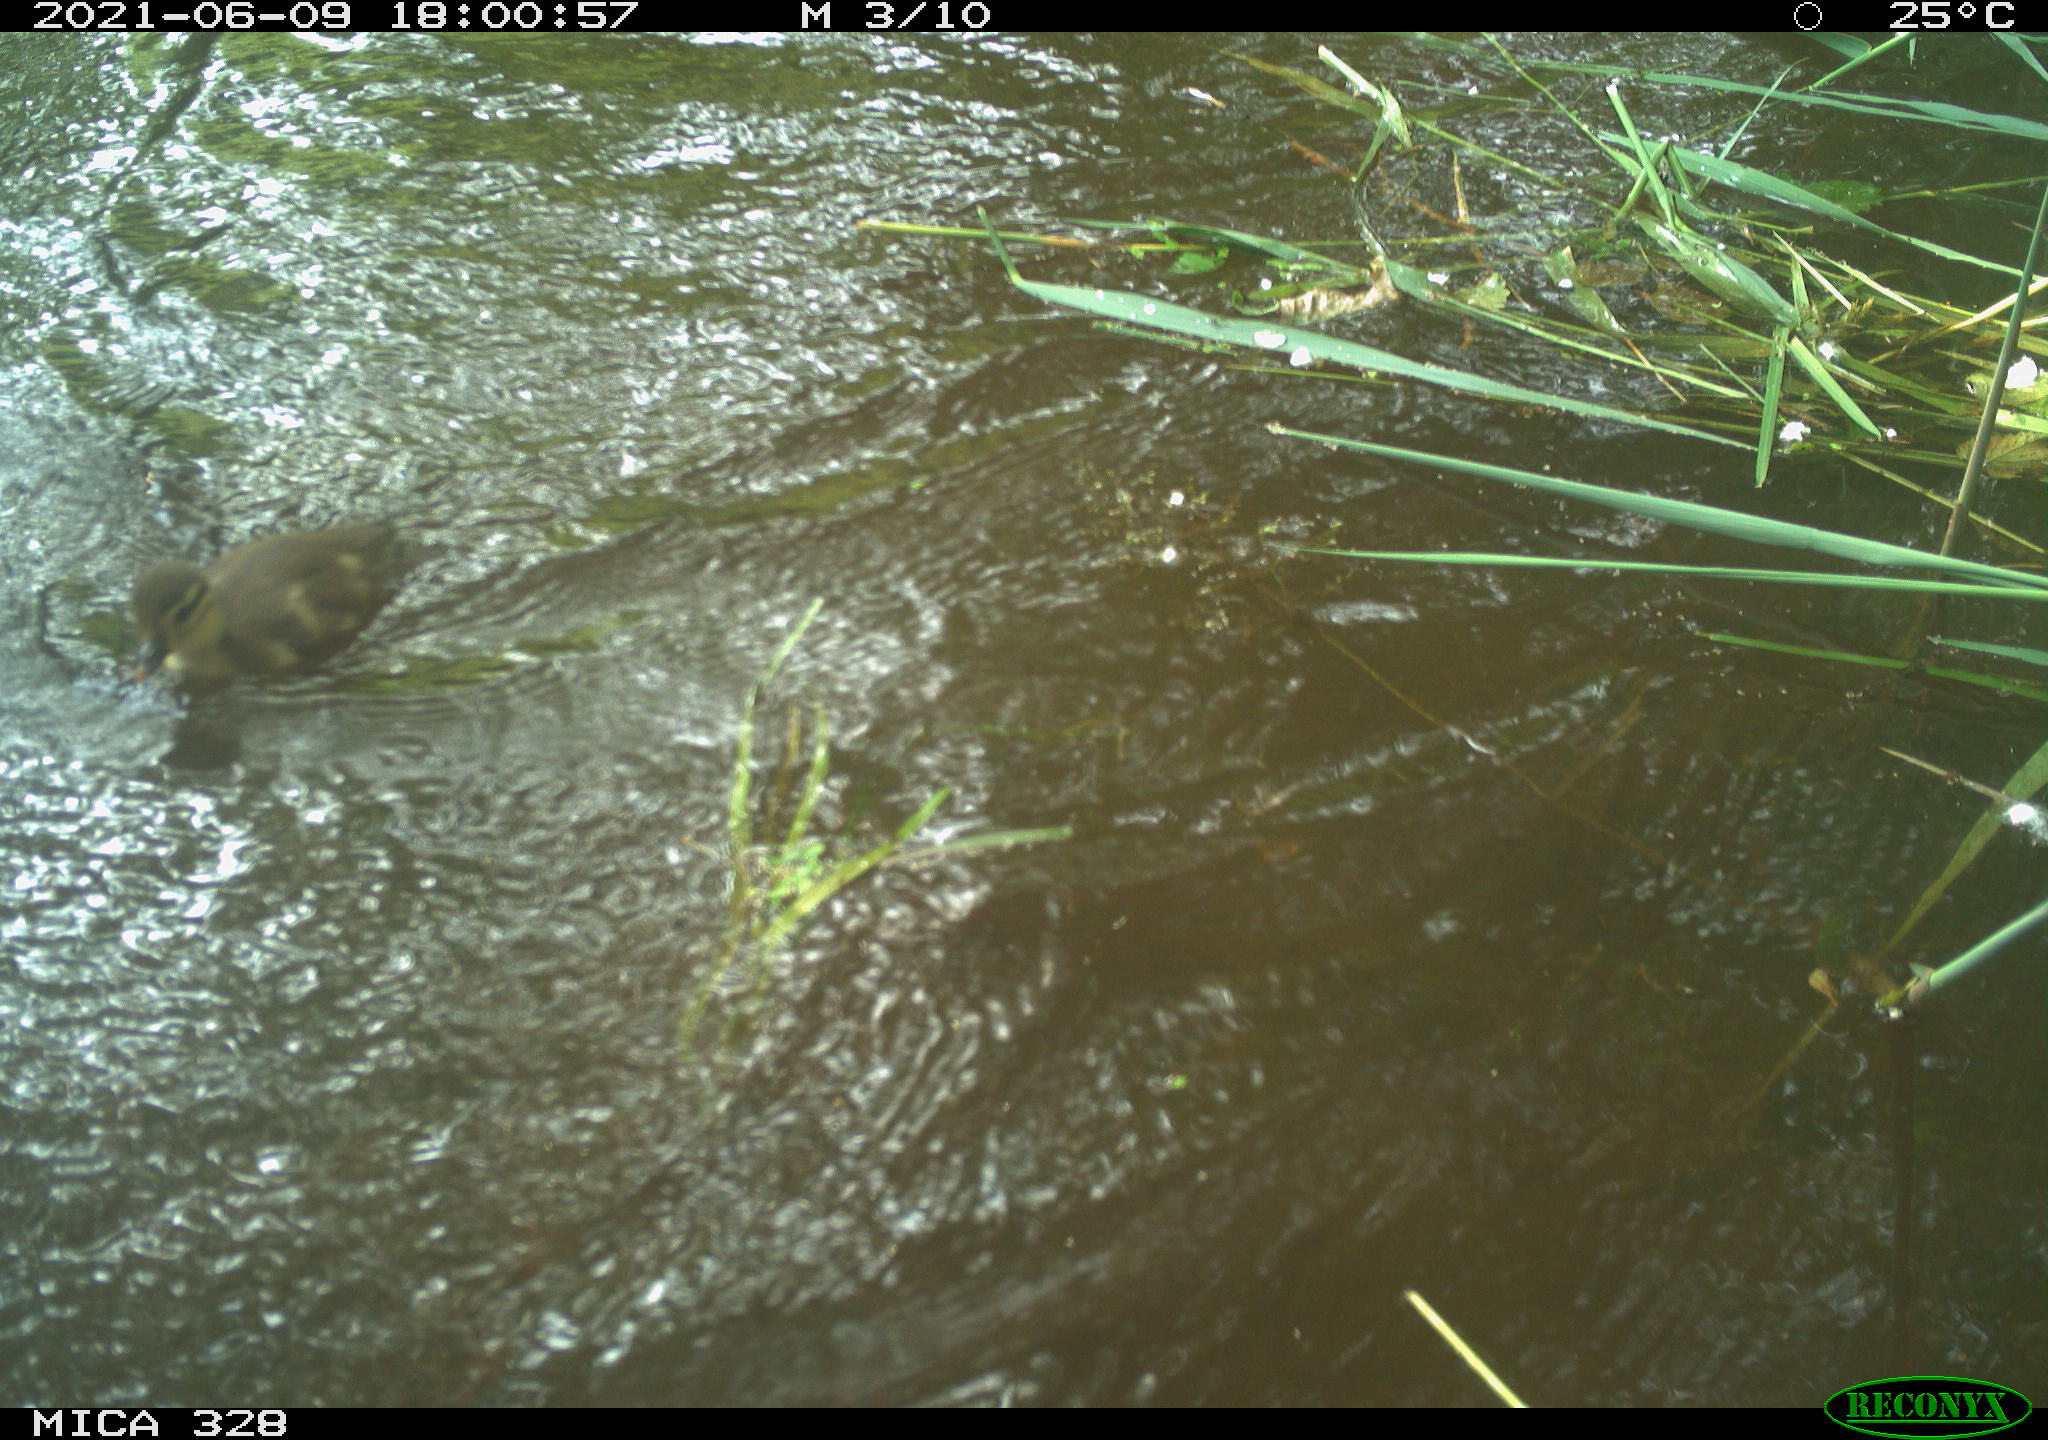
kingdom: Animalia
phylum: Chordata
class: Aves
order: Anseriformes
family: Anatidae
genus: Aix
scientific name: Aix galericulata
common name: Mandarin duck
